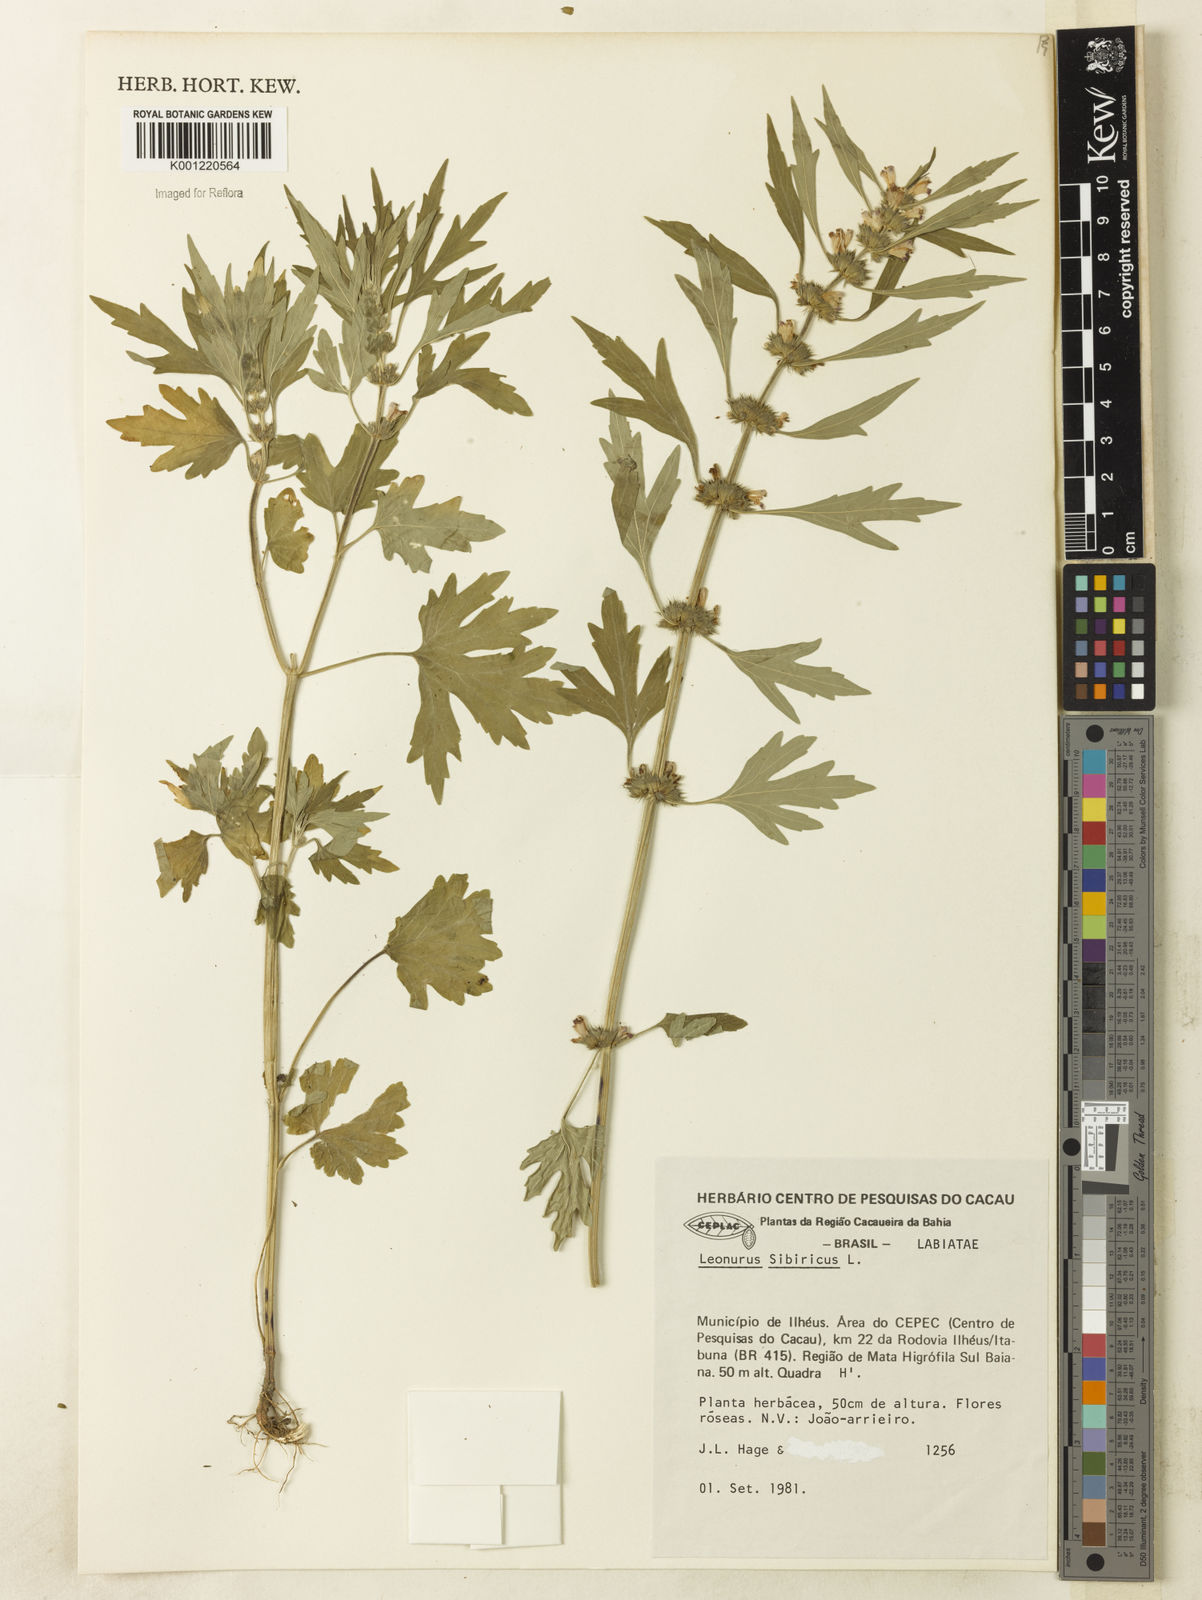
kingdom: Plantae
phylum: Tracheophyta
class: Magnoliopsida
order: Lamiales
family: Lamiaceae
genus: Leonurus
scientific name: Leonurus japonicus
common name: Honeyweed
